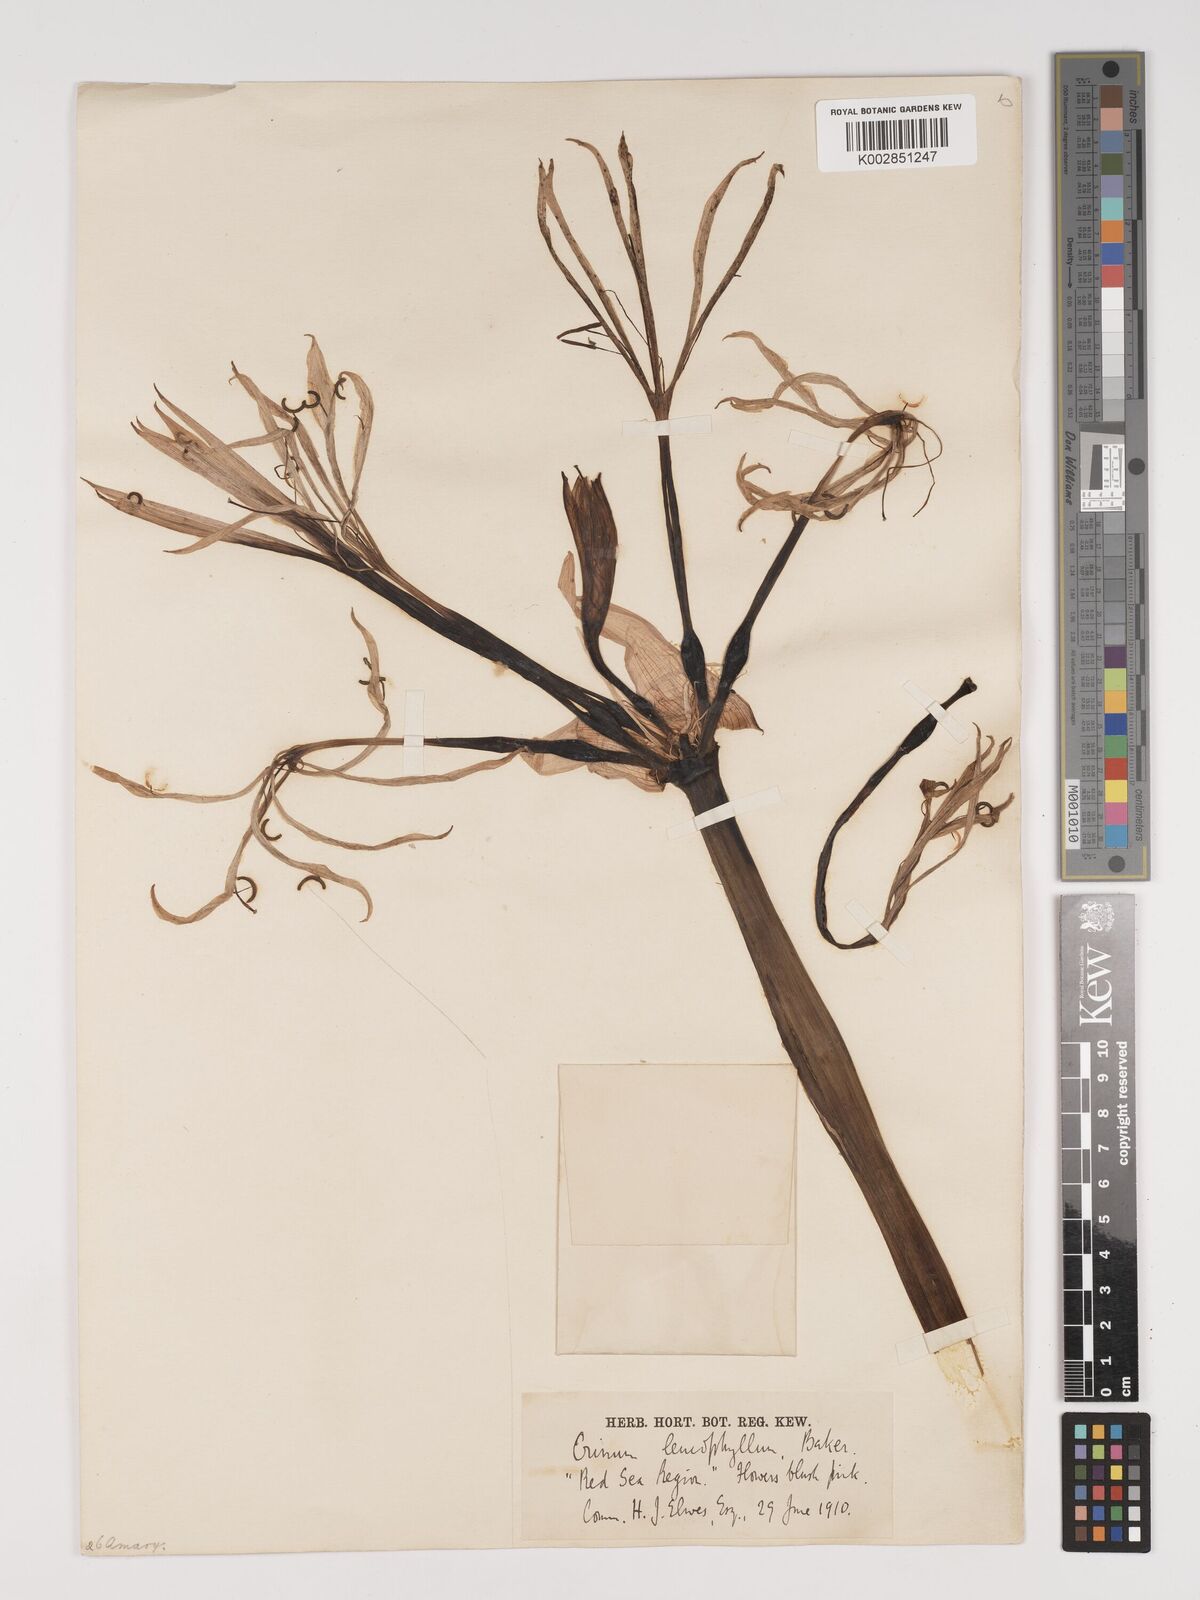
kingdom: Plantae
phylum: Tracheophyta
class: Liliopsida
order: Asparagales
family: Amaryllidaceae
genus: Crinum
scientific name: Crinum bambusetum
